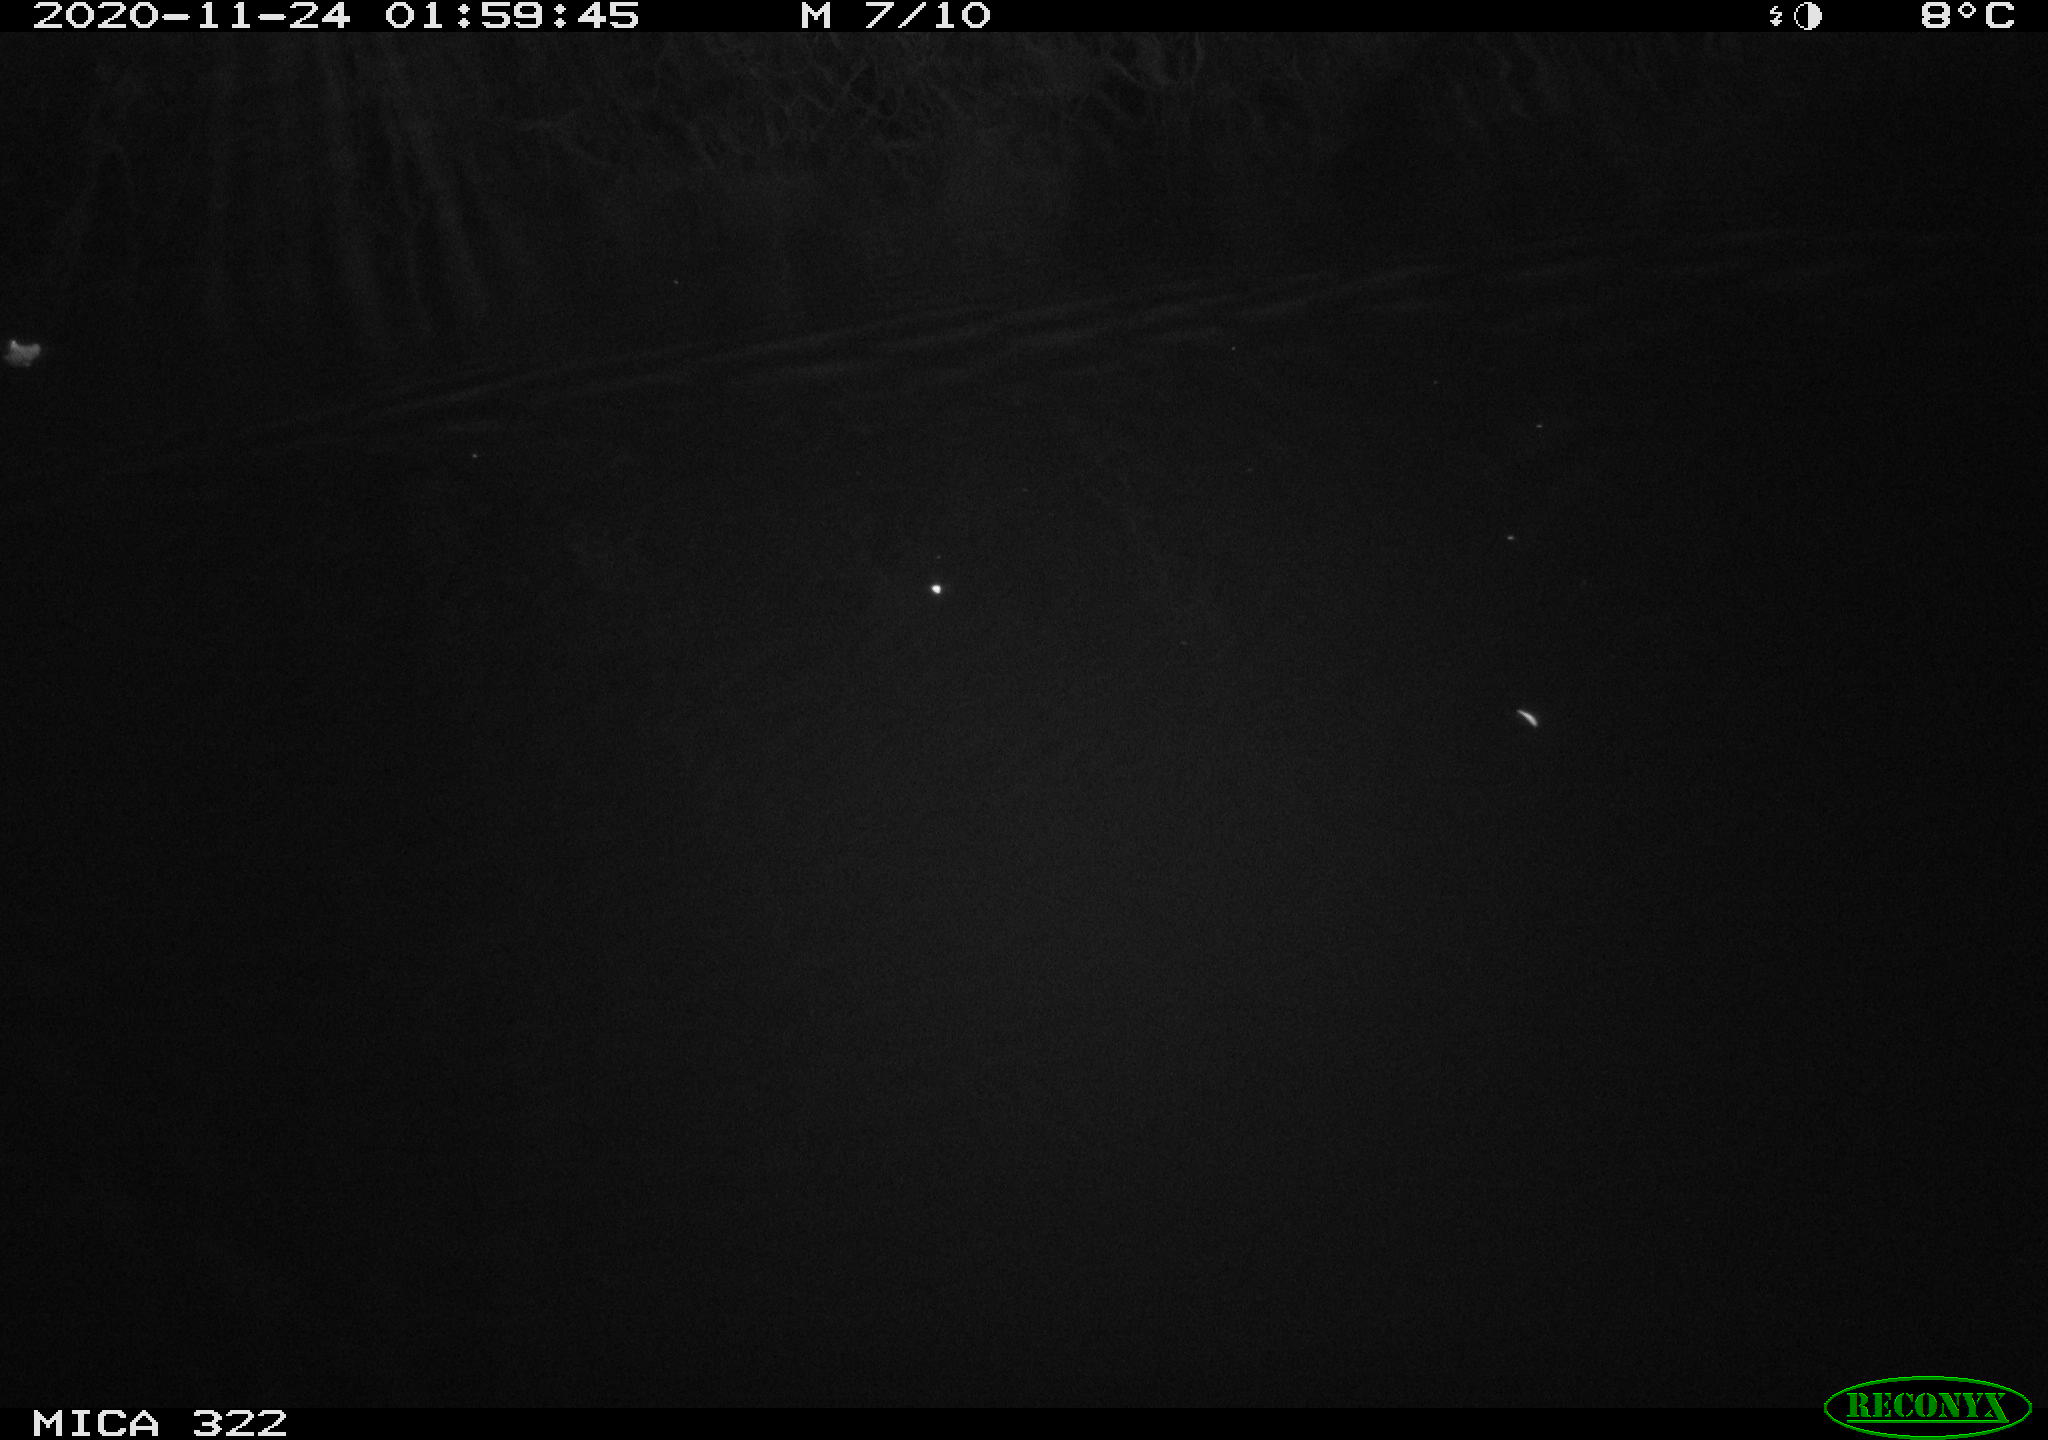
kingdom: Animalia
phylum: Chordata
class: Mammalia
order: Rodentia
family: Muridae
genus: Rattus
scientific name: Rattus norvegicus
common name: Brown rat
